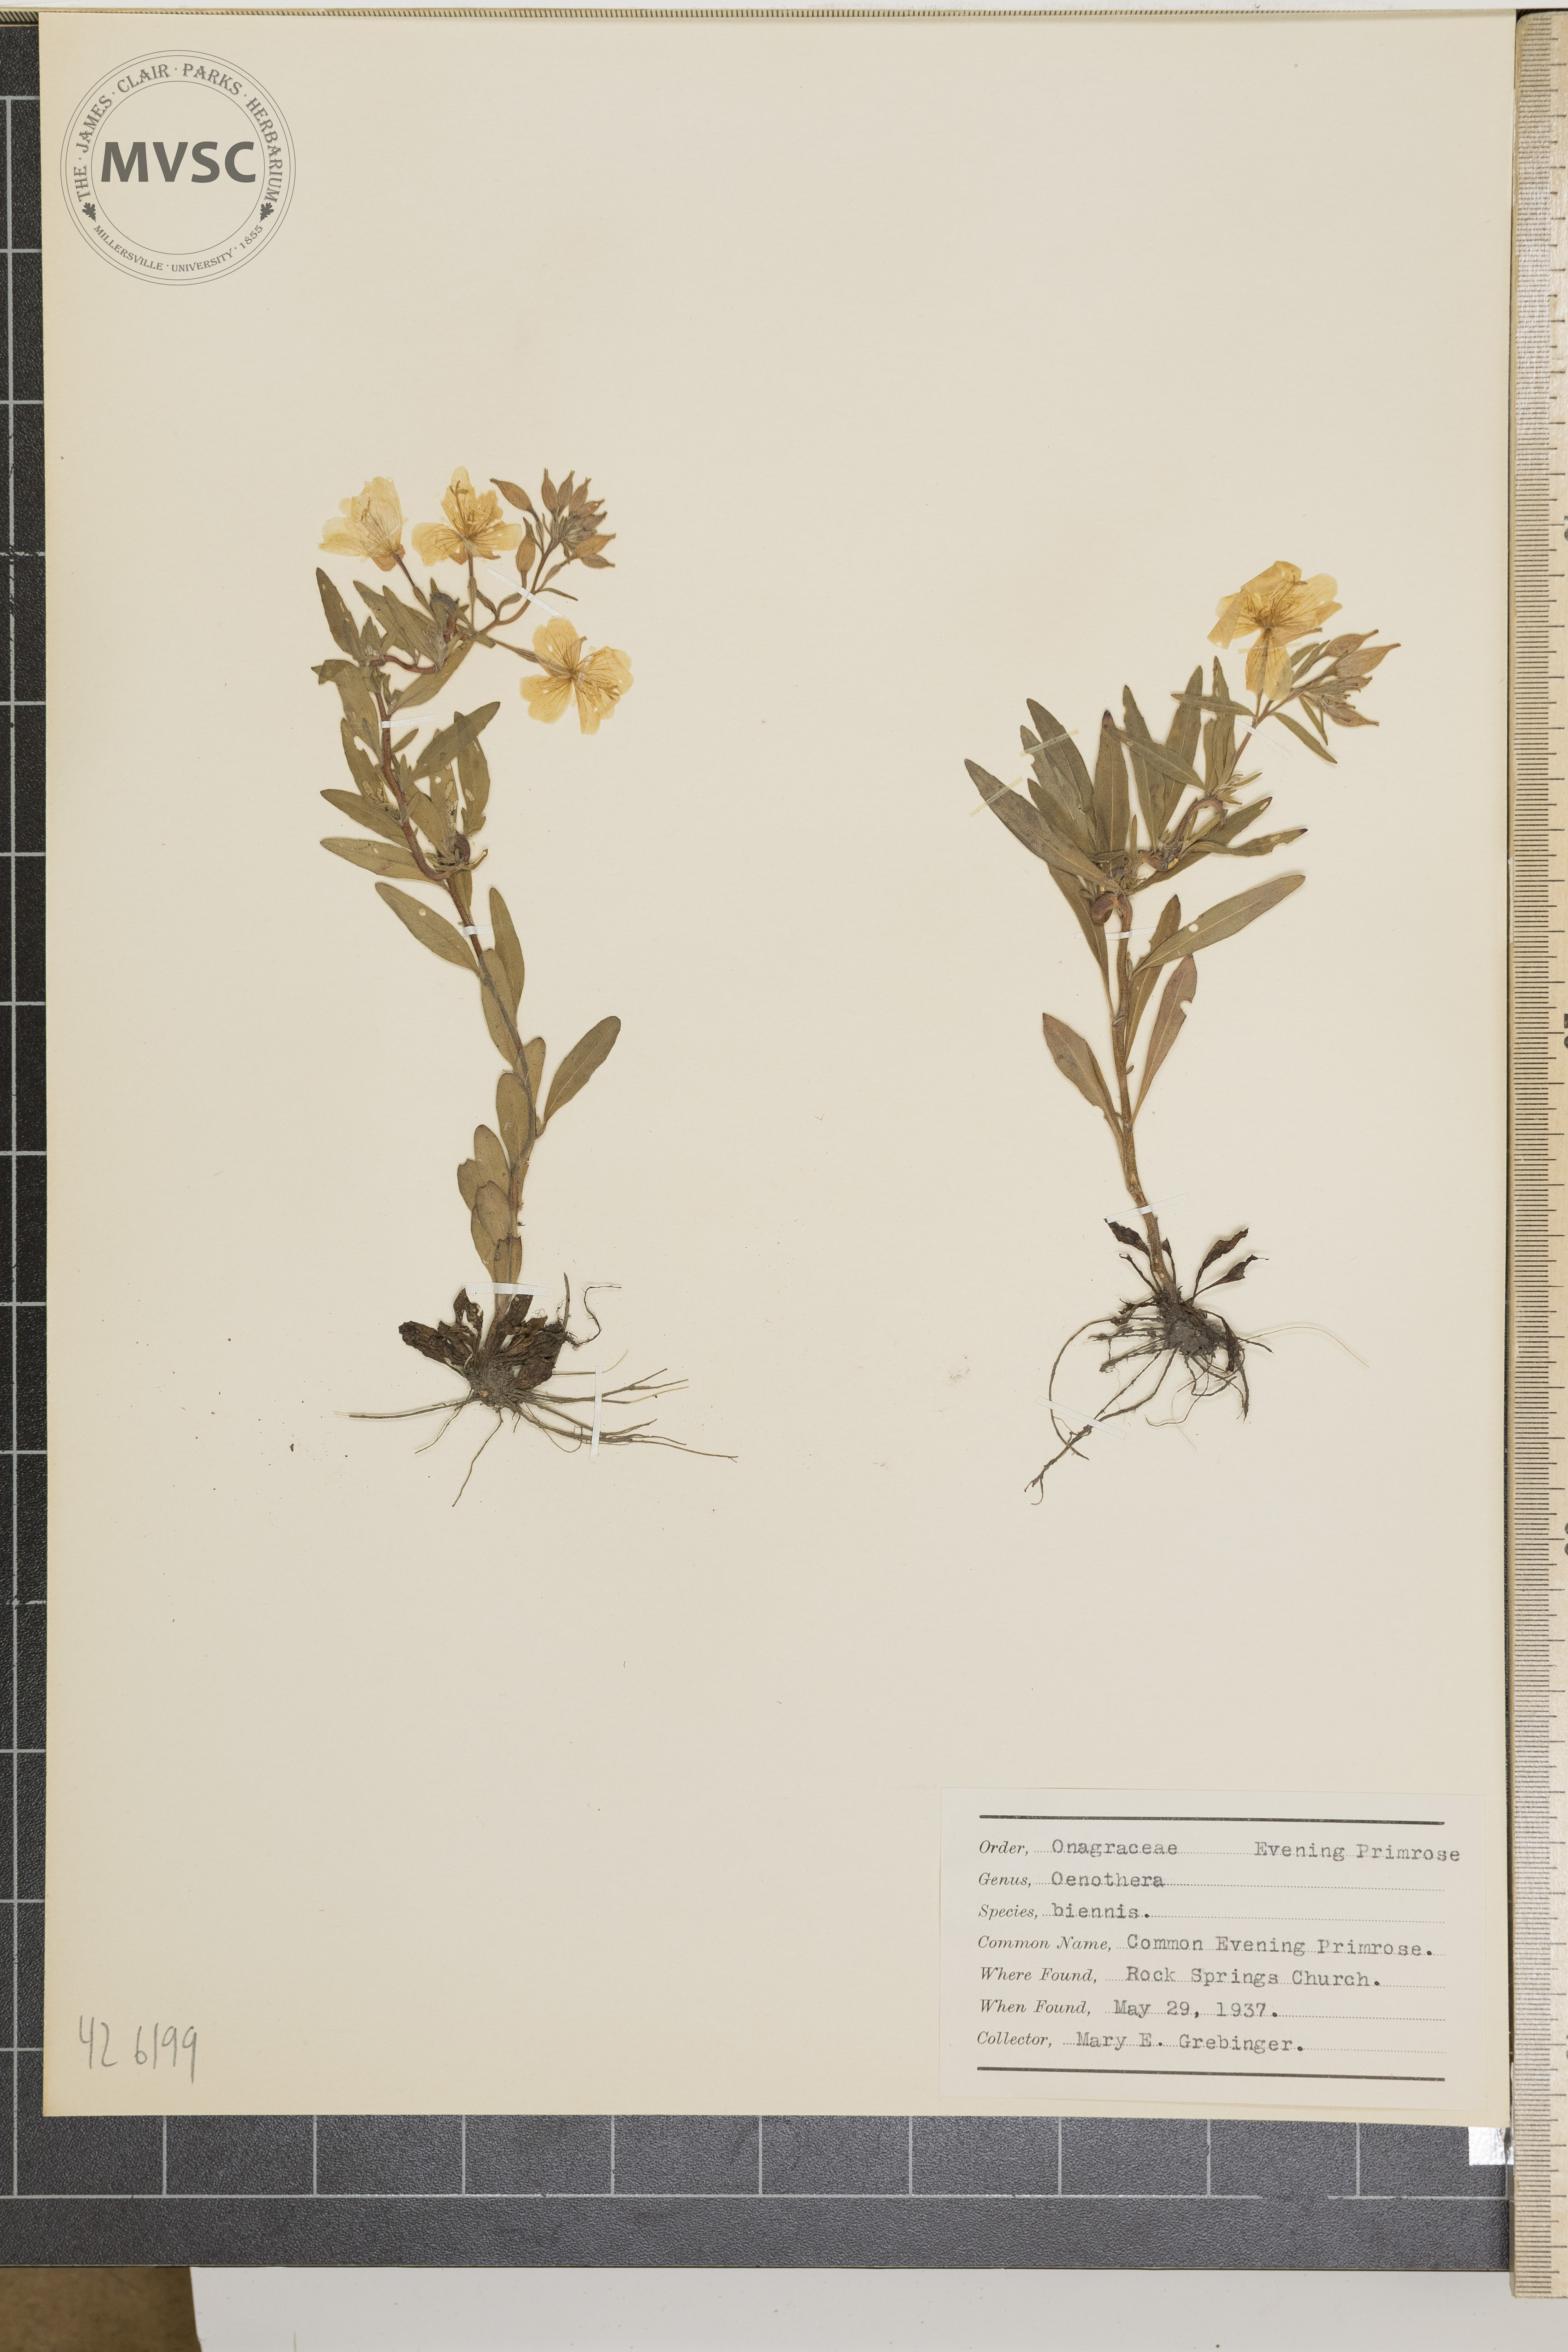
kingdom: Plantae
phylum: Tracheophyta
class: Magnoliopsida
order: Myrtales
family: Onagraceae
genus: Oenothera
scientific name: Oenothera biennis
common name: Common evening primrose
